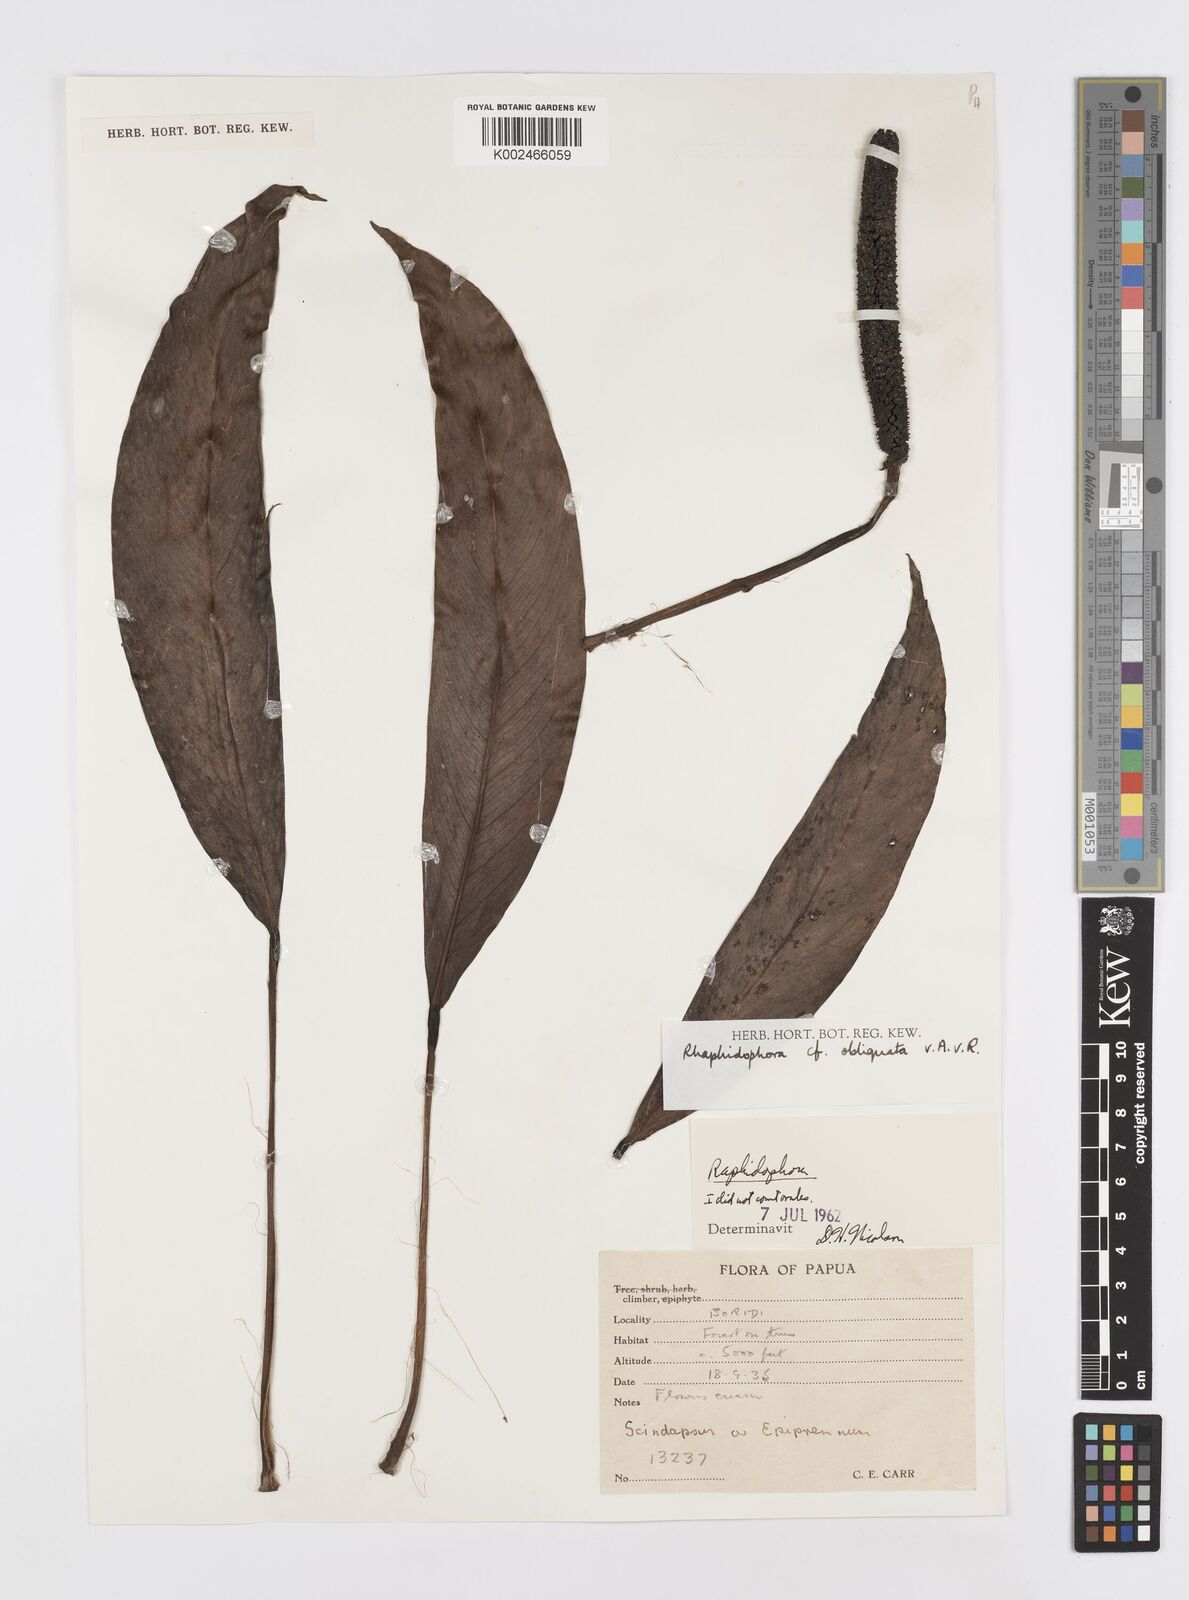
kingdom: Plantae
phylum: Tracheophyta
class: Liliopsida
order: Alismatales
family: Araceae
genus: Rhaphidophora
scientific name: Rhaphidophora kokodensis
